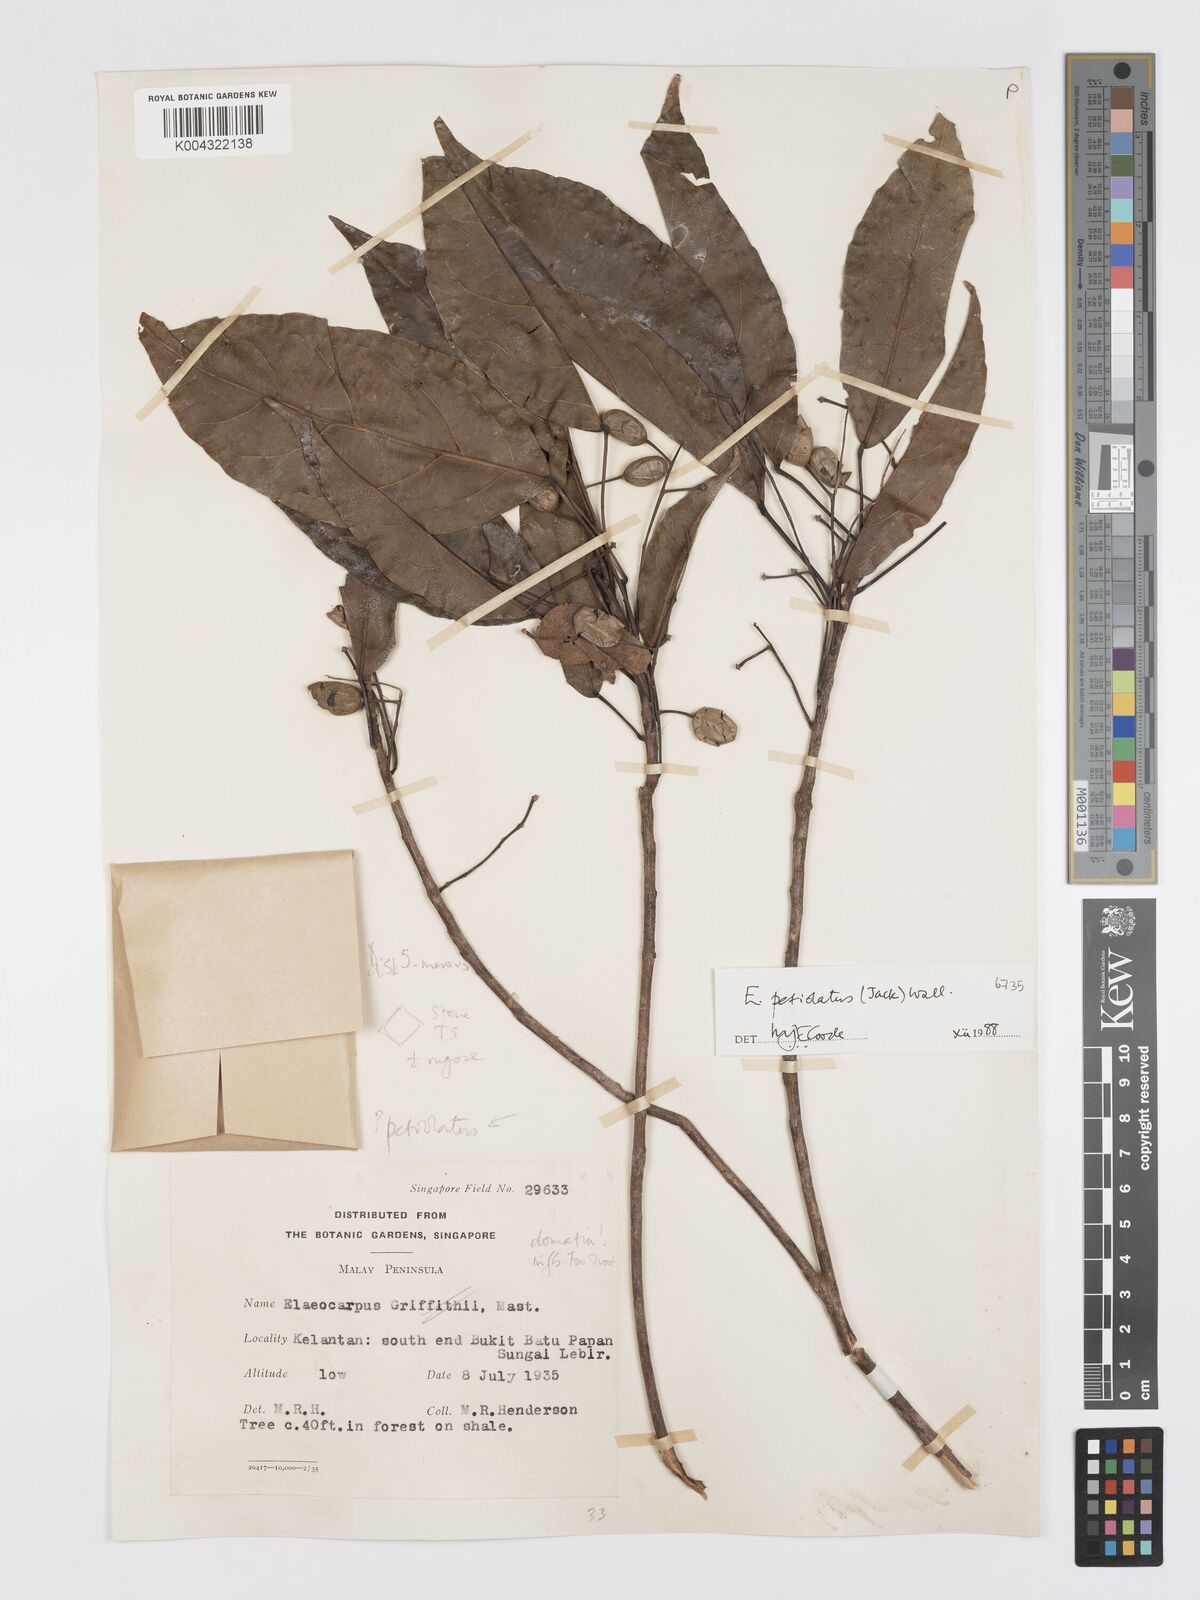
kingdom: Plantae
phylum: Tracheophyta
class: Magnoliopsida
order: Oxalidales
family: Elaeocarpaceae
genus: Elaeocarpus
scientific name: Elaeocarpus petiolatus
